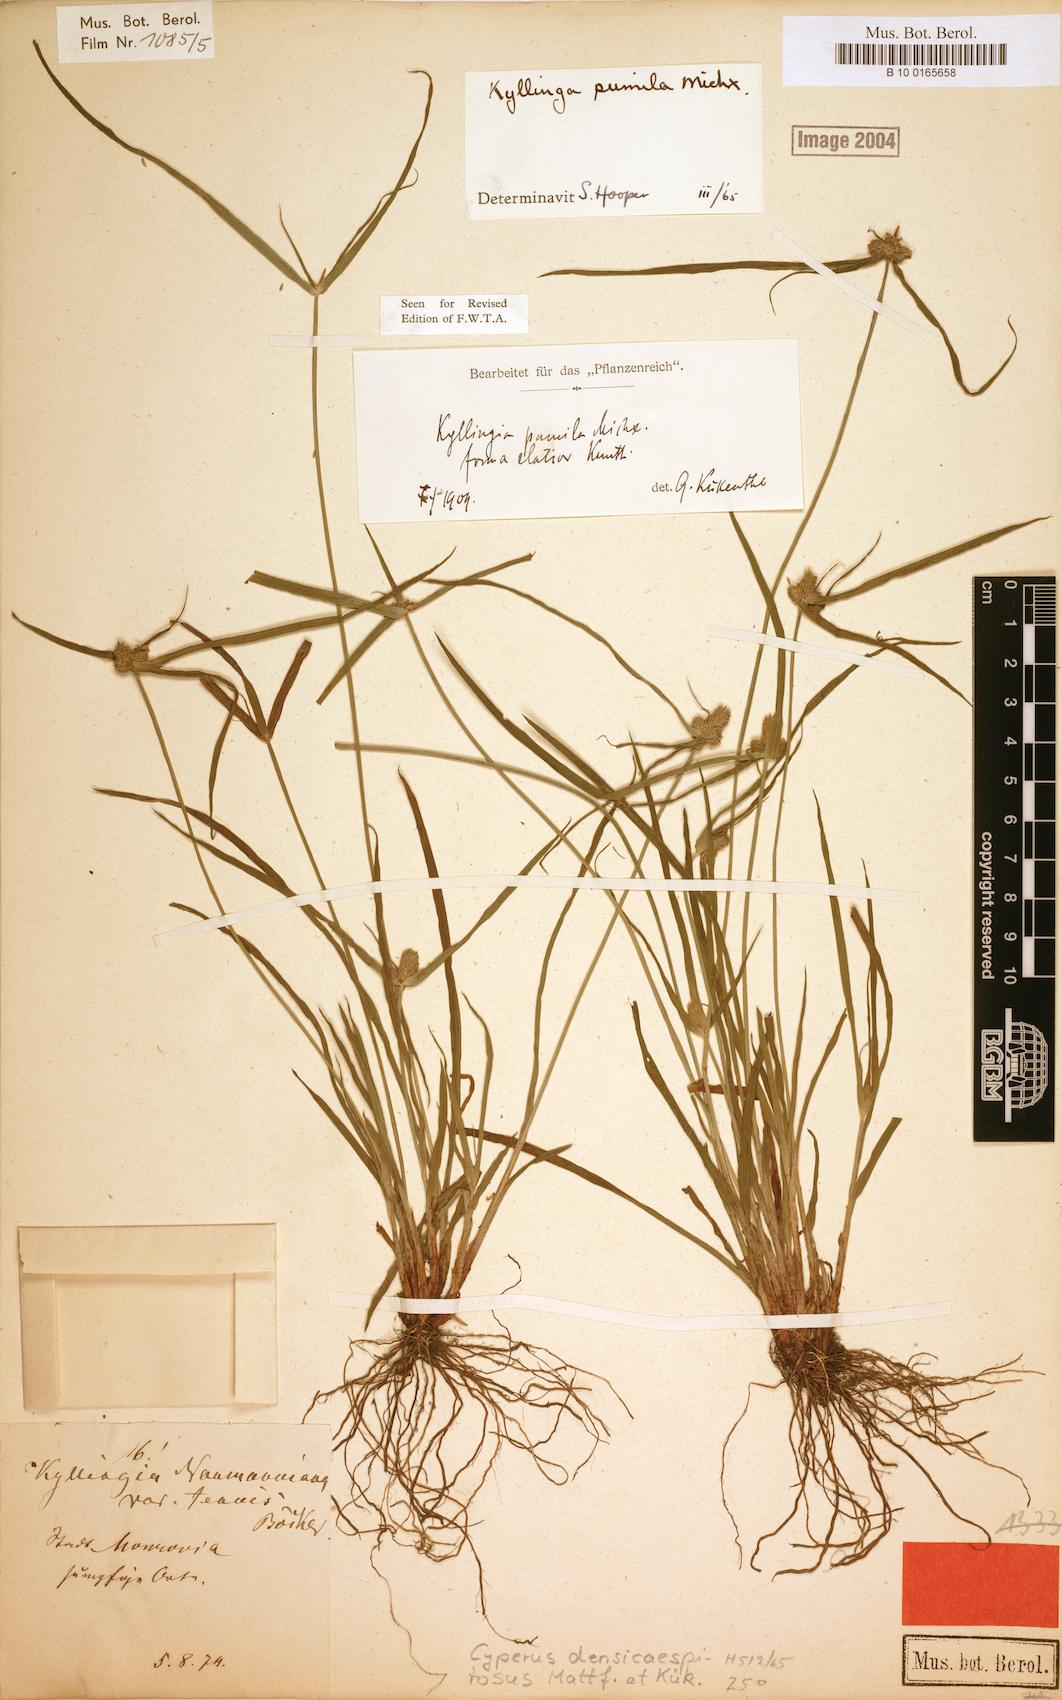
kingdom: Plantae
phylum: Tracheophyta
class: Liliopsida
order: Poales
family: Cyperaceae
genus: Cyperus
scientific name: Cyperus hortensis
